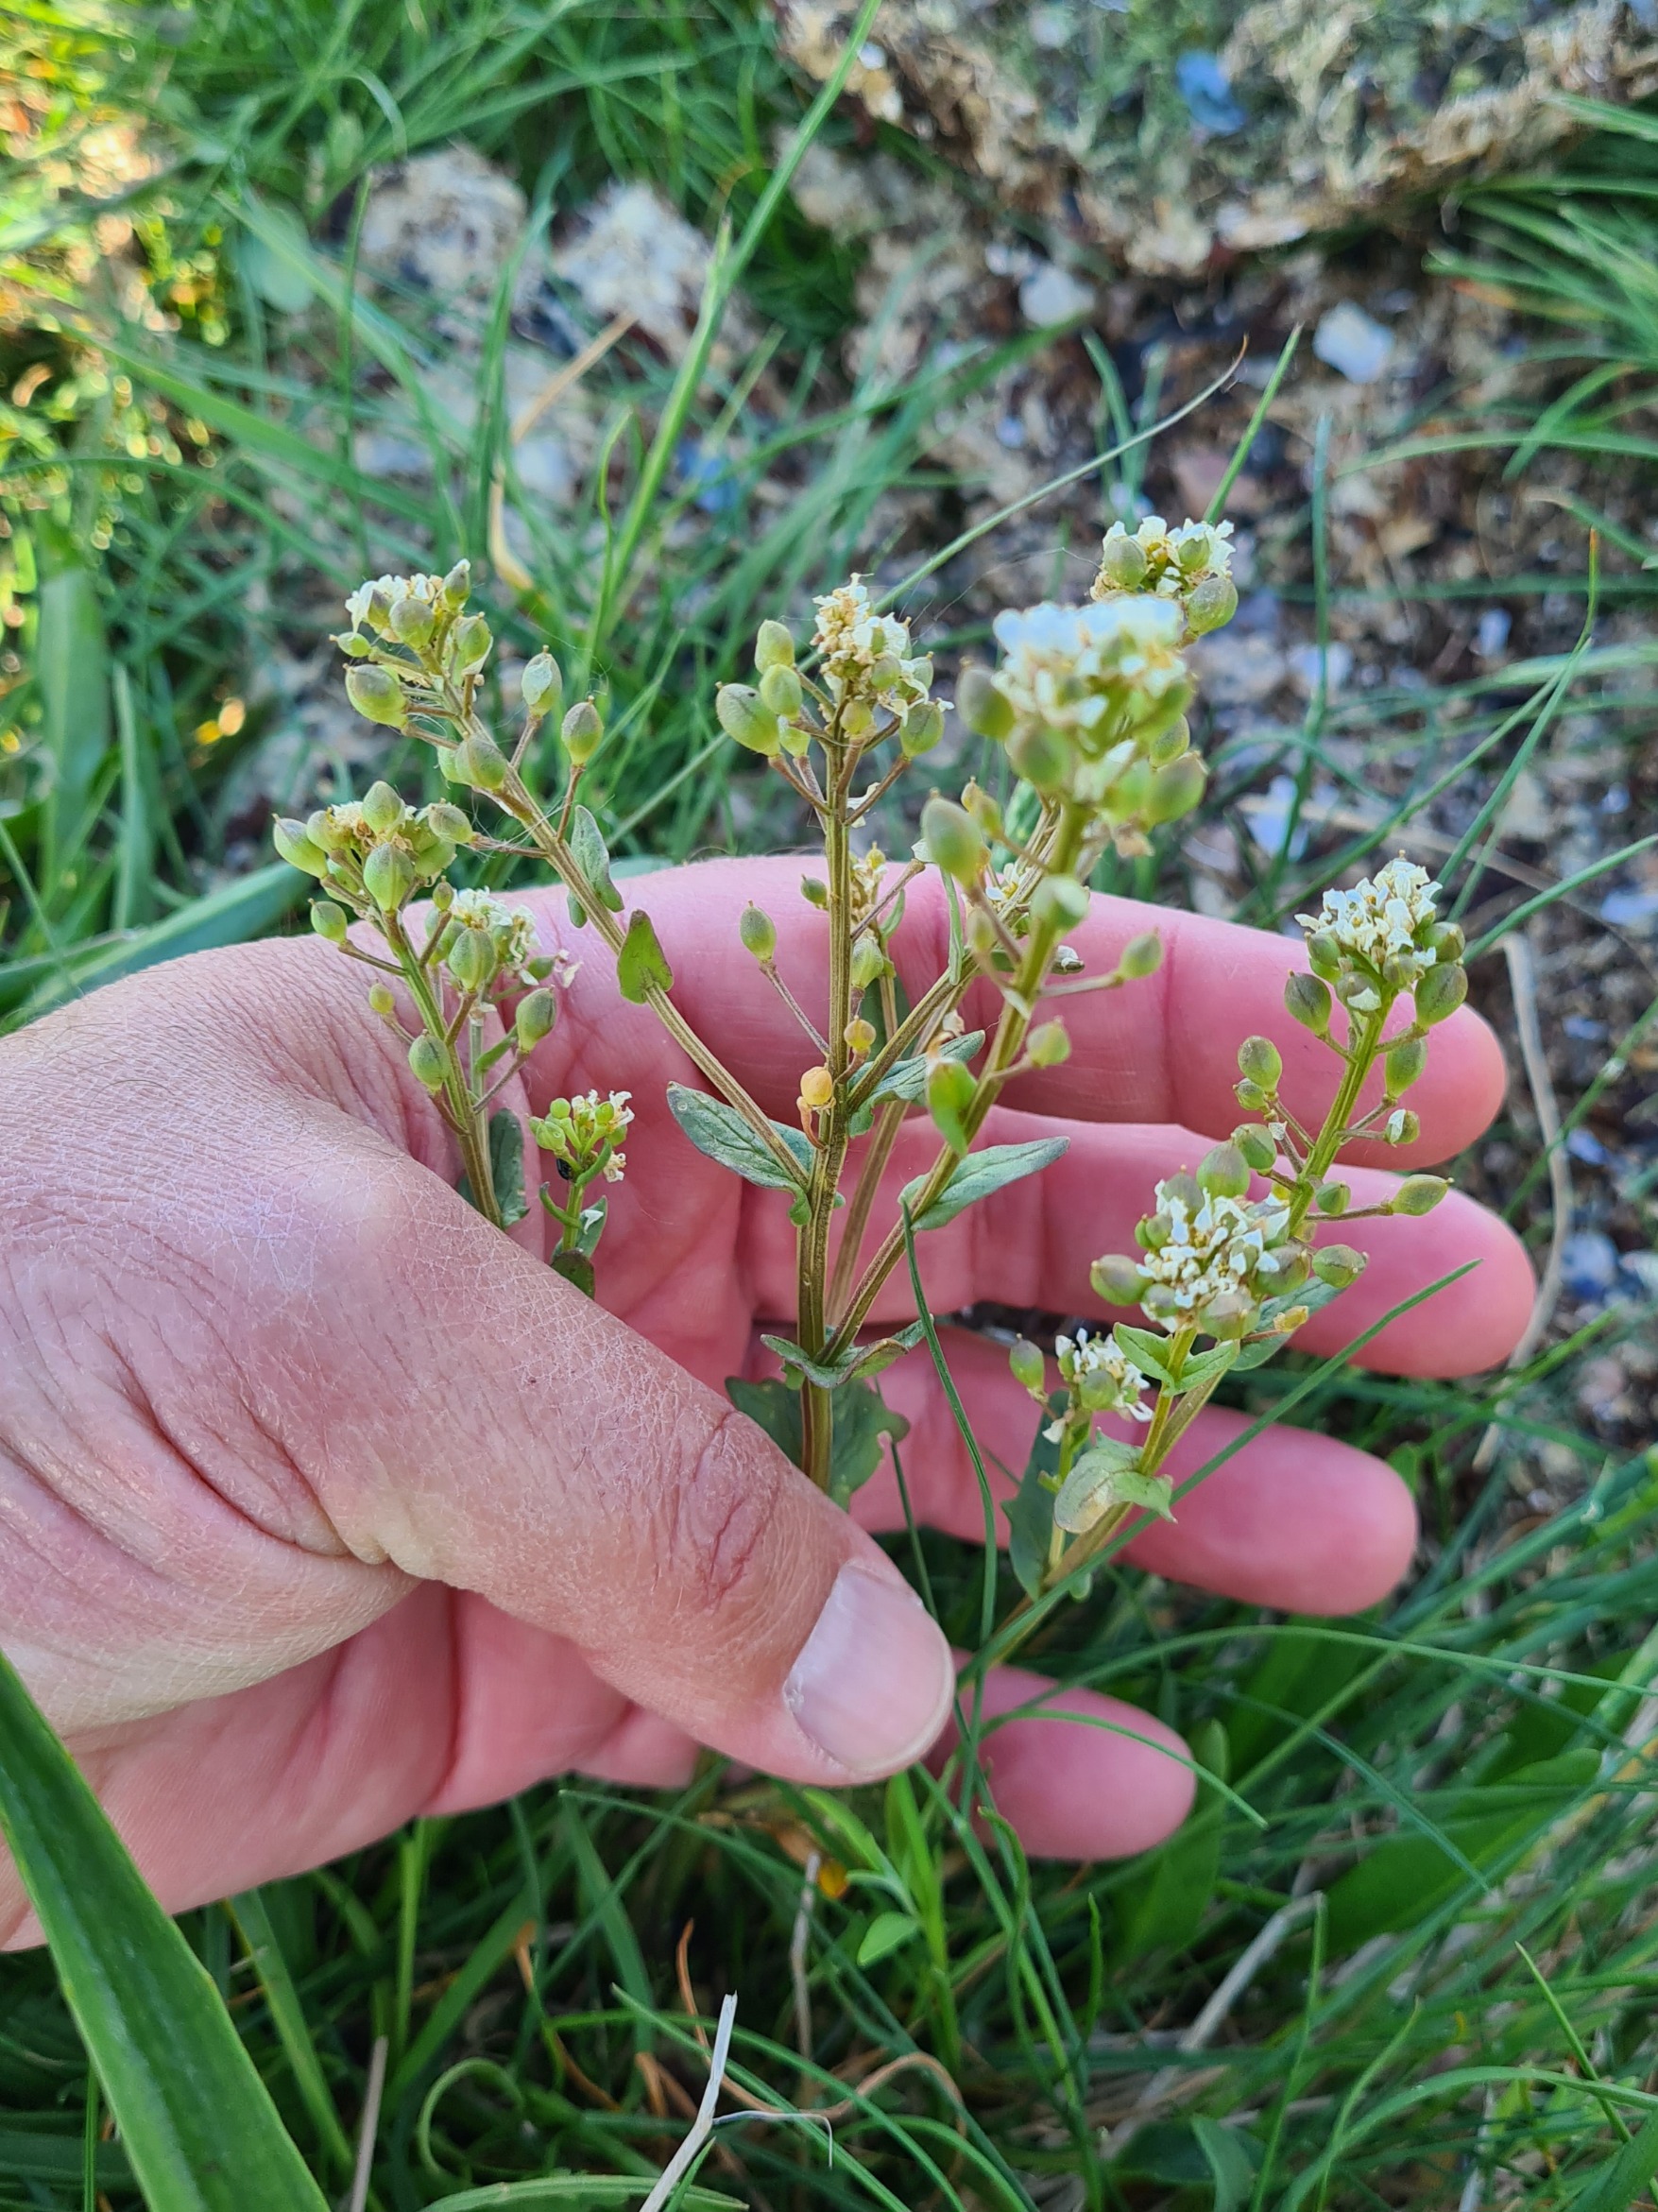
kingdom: Plantae
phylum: Tracheophyta
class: Magnoliopsida
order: Brassicales
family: Brassicaceae
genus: Cochlearia
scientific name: Cochlearia officinalis
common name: Læge-kokleare (underart)
